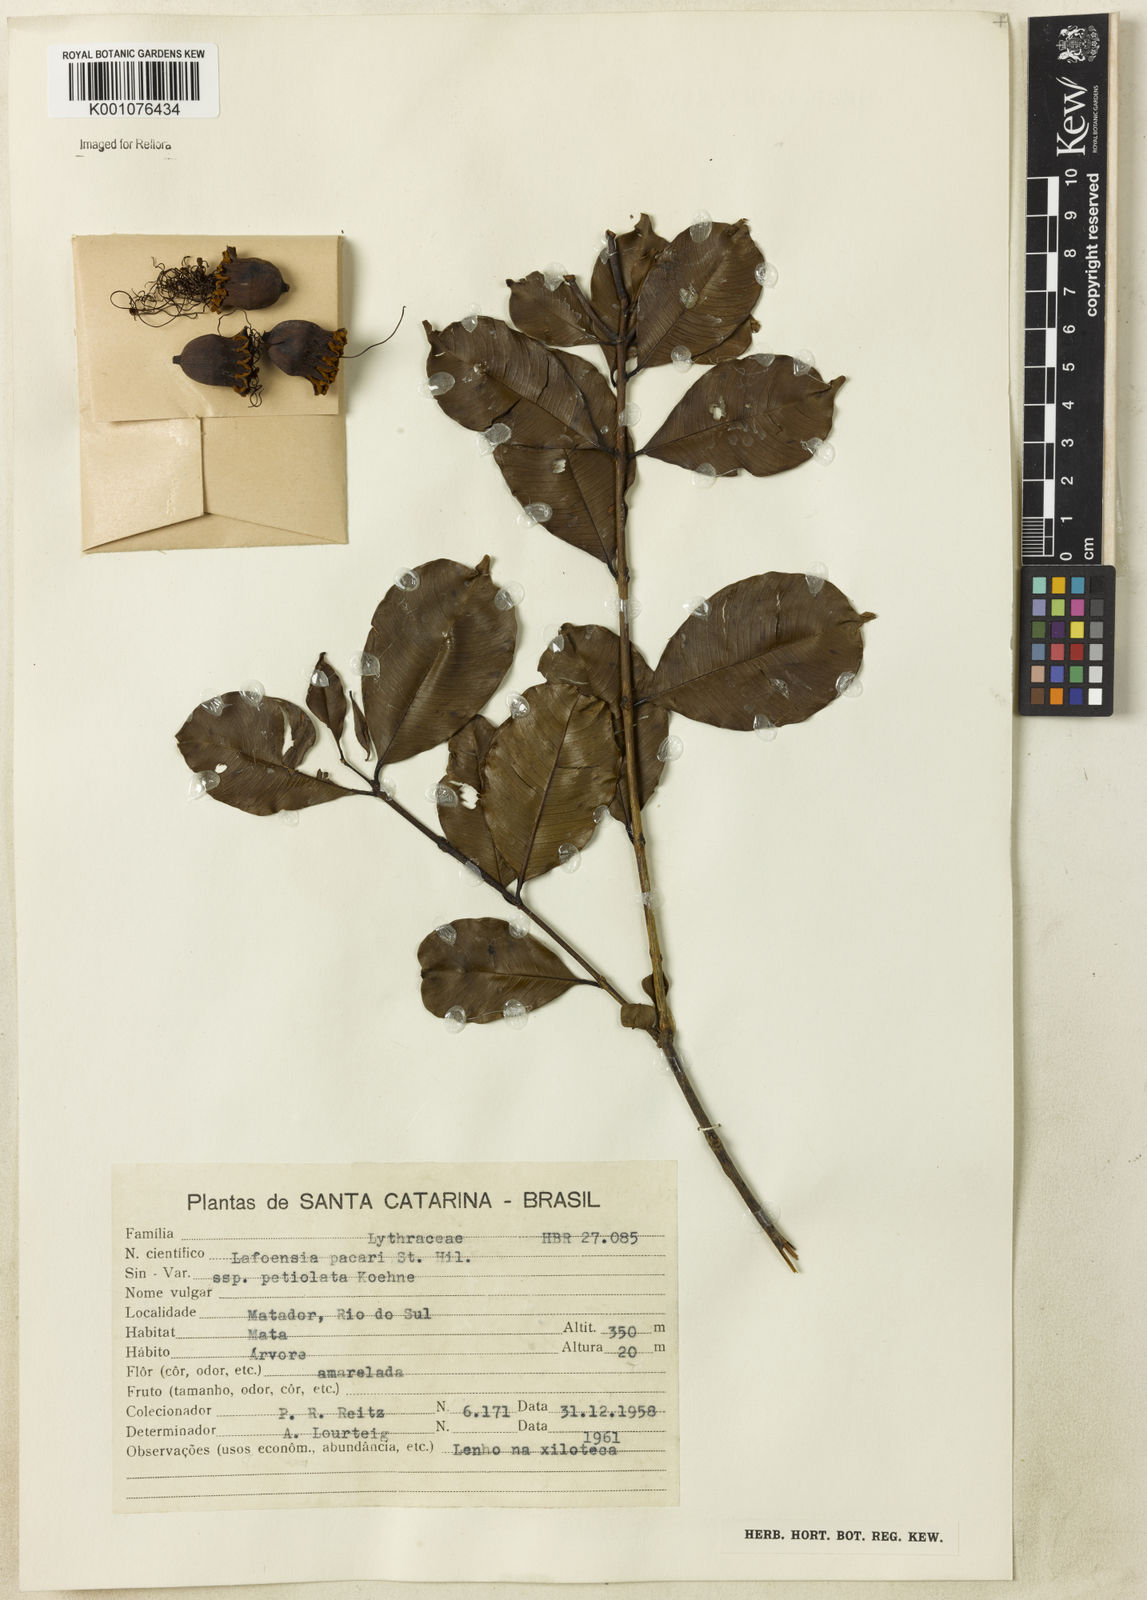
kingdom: Plantae
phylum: Tracheophyta
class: Magnoliopsida
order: Myrtales
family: Lythraceae
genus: Lafoensia
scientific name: Lafoensia pacari
